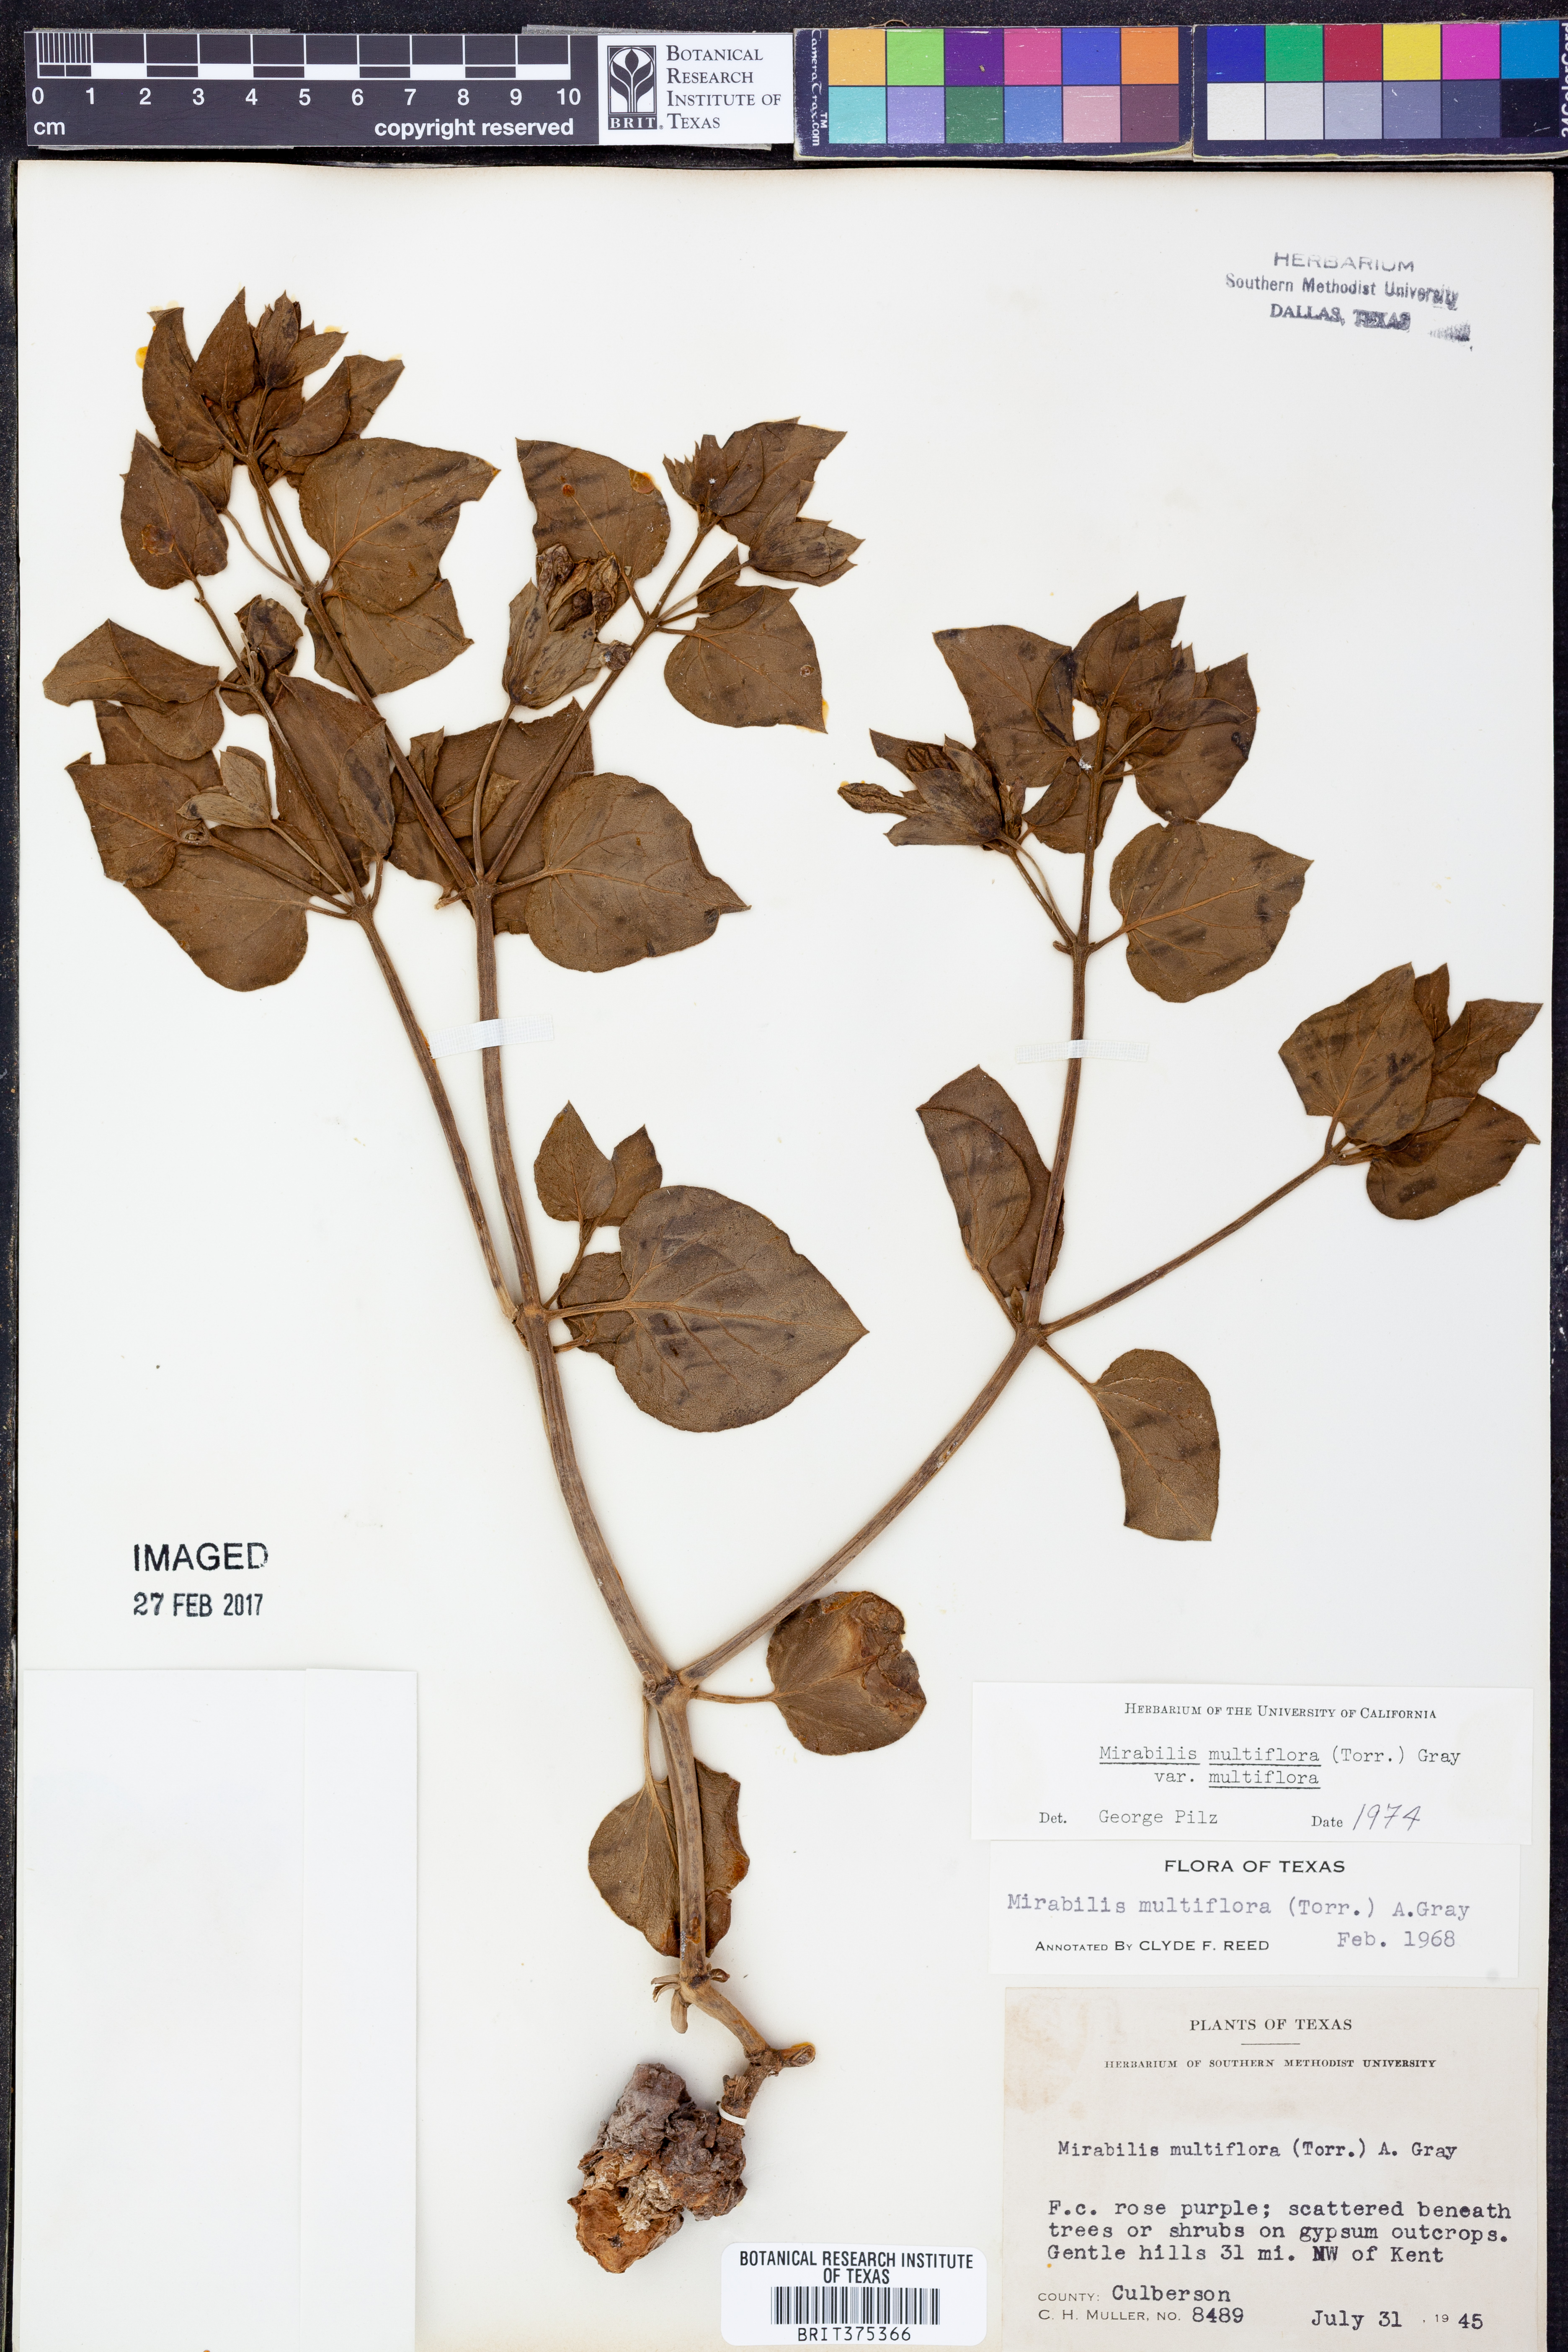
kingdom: Plantae
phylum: Tracheophyta
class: Magnoliopsida
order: Caryophyllales
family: Nyctaginaceae
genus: Mirabilis
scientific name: Mirabilis multiflora
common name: Froebel's four-o'clock
